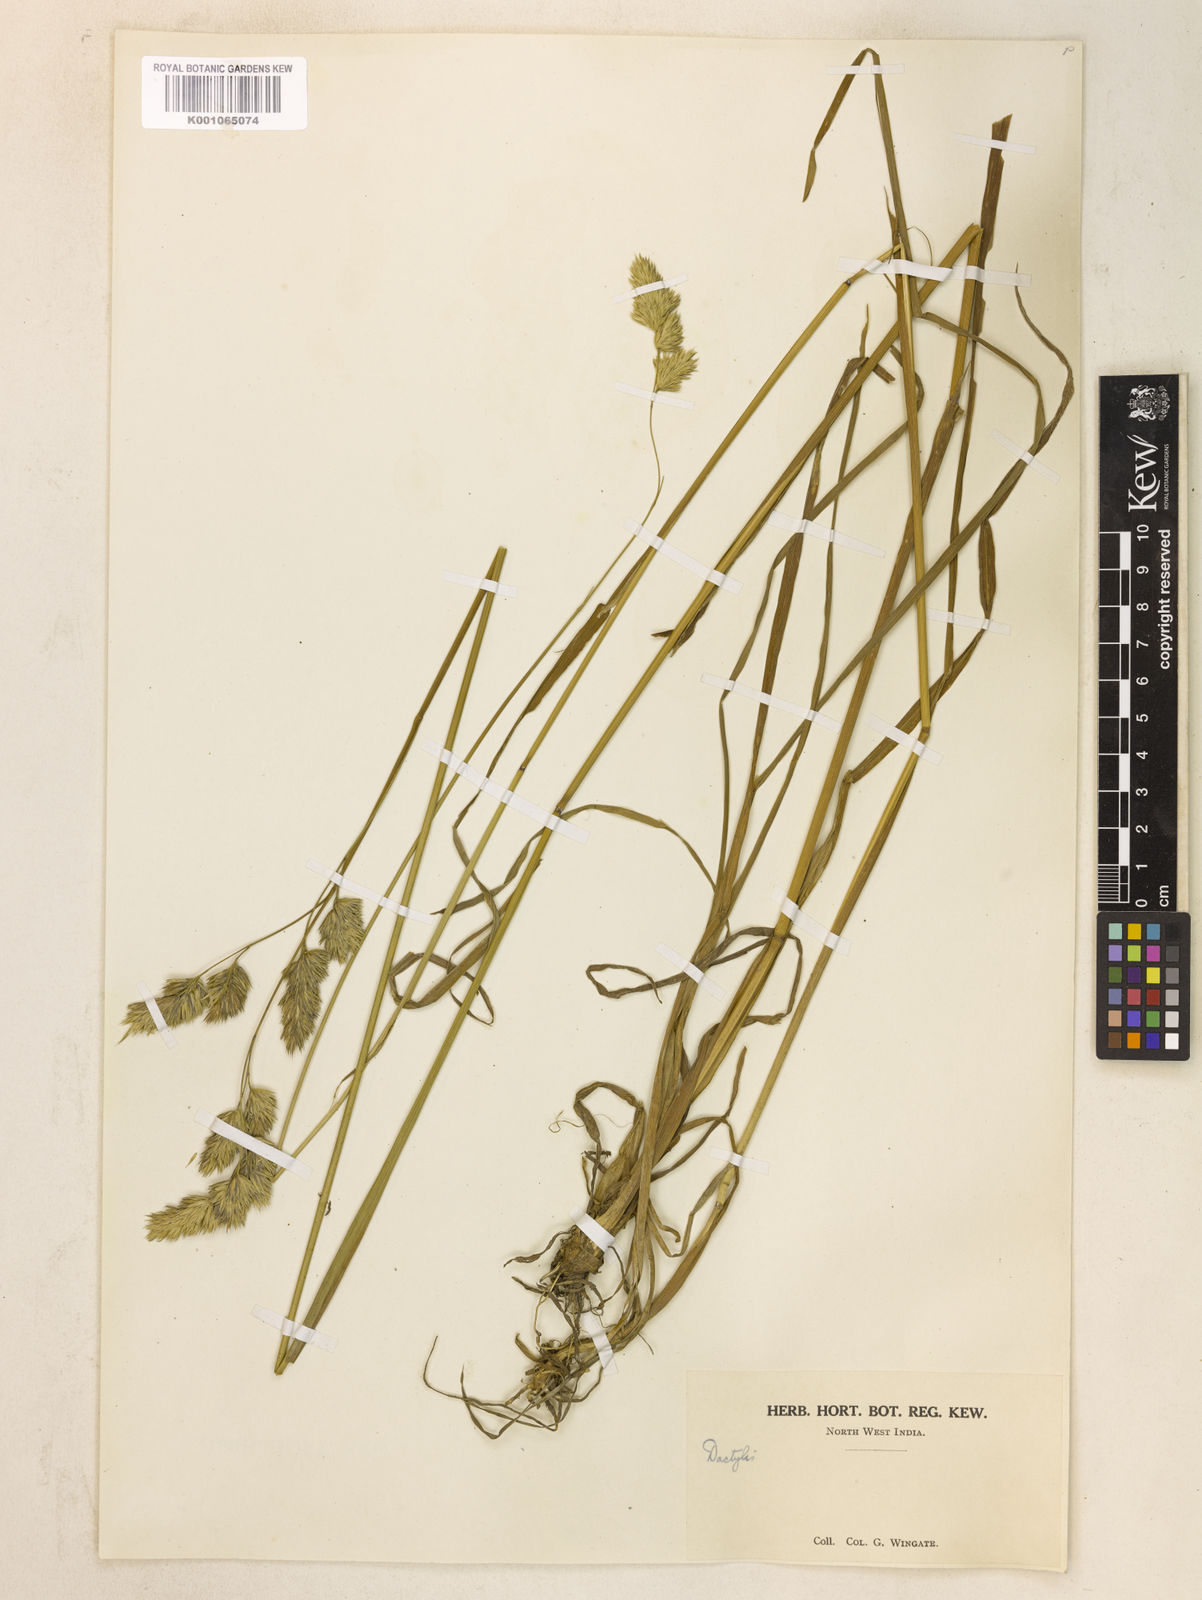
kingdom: Plantae
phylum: Tracheophyta
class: Liliopsida
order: Poales
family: Poaceae
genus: Dactylis
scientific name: Dactylis glomerata
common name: Orchardgrass
